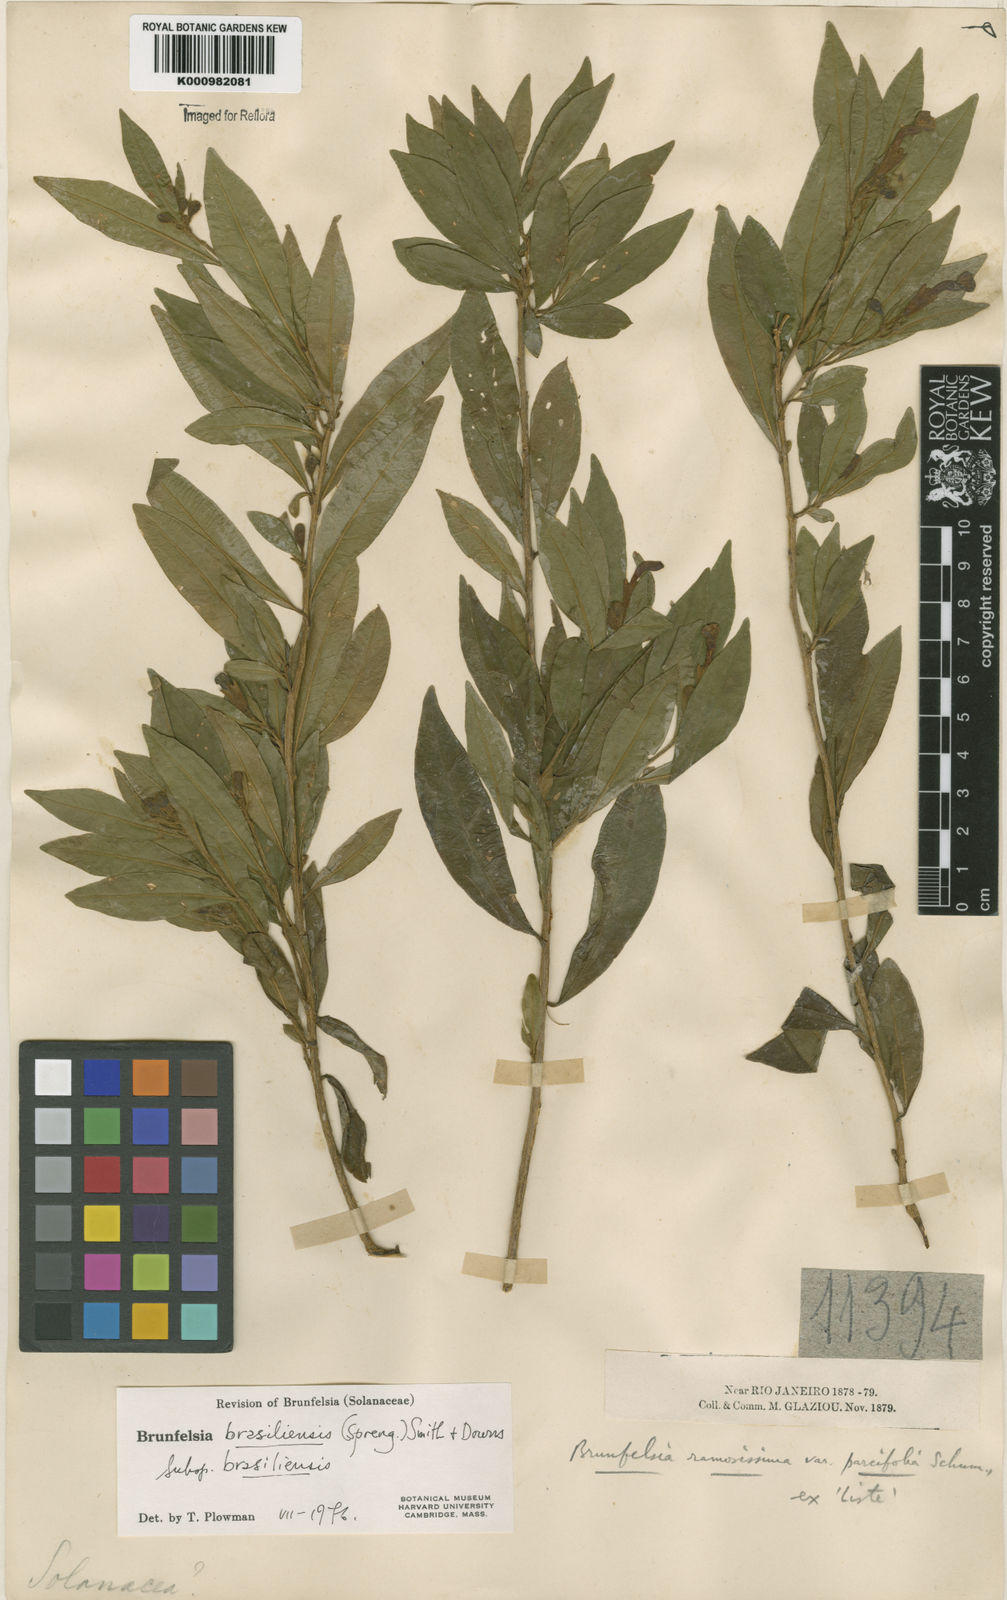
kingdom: Plantae
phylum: Tracheophyta
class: Magnoliopsida
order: Solanales
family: Solanaceae
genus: Brunfelsia
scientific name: Brunfelsia brasiliensis
